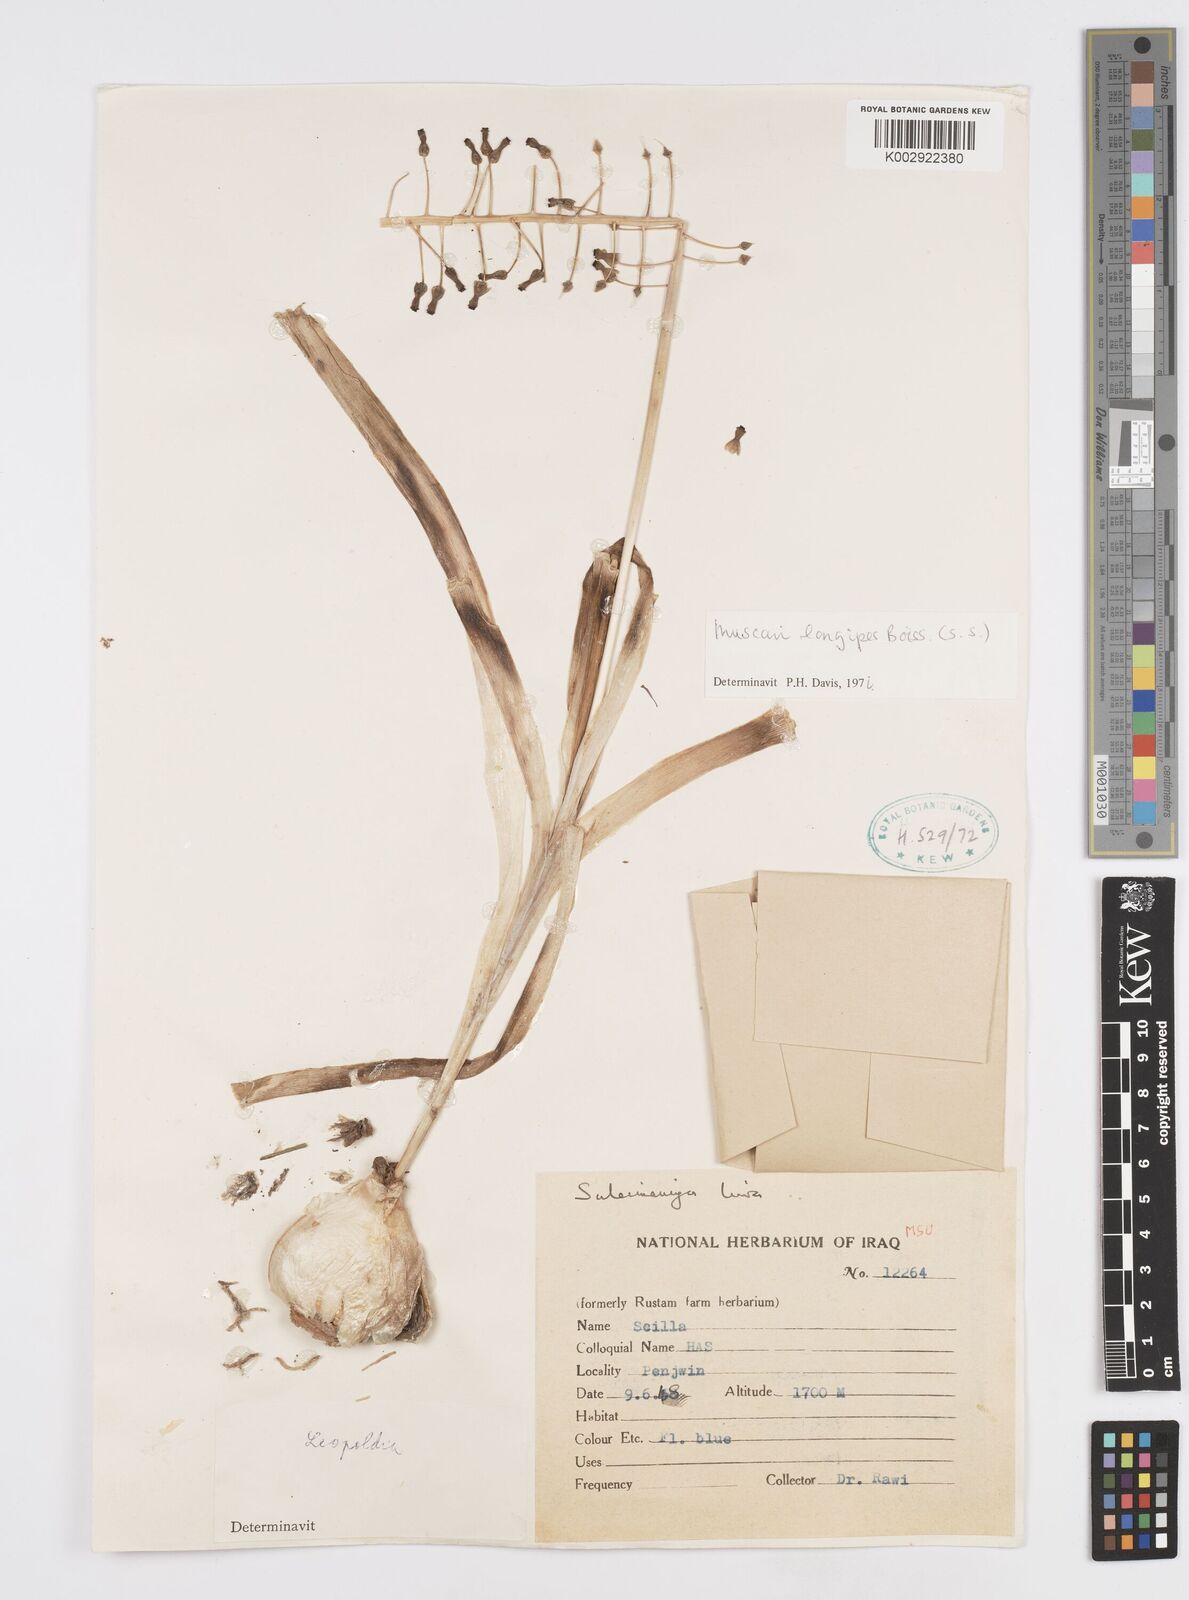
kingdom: Plantae
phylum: Tracheophyta
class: Liliopsida
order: Asparagales
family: Asparagaceae
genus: Muscari
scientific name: Muscari longipes
